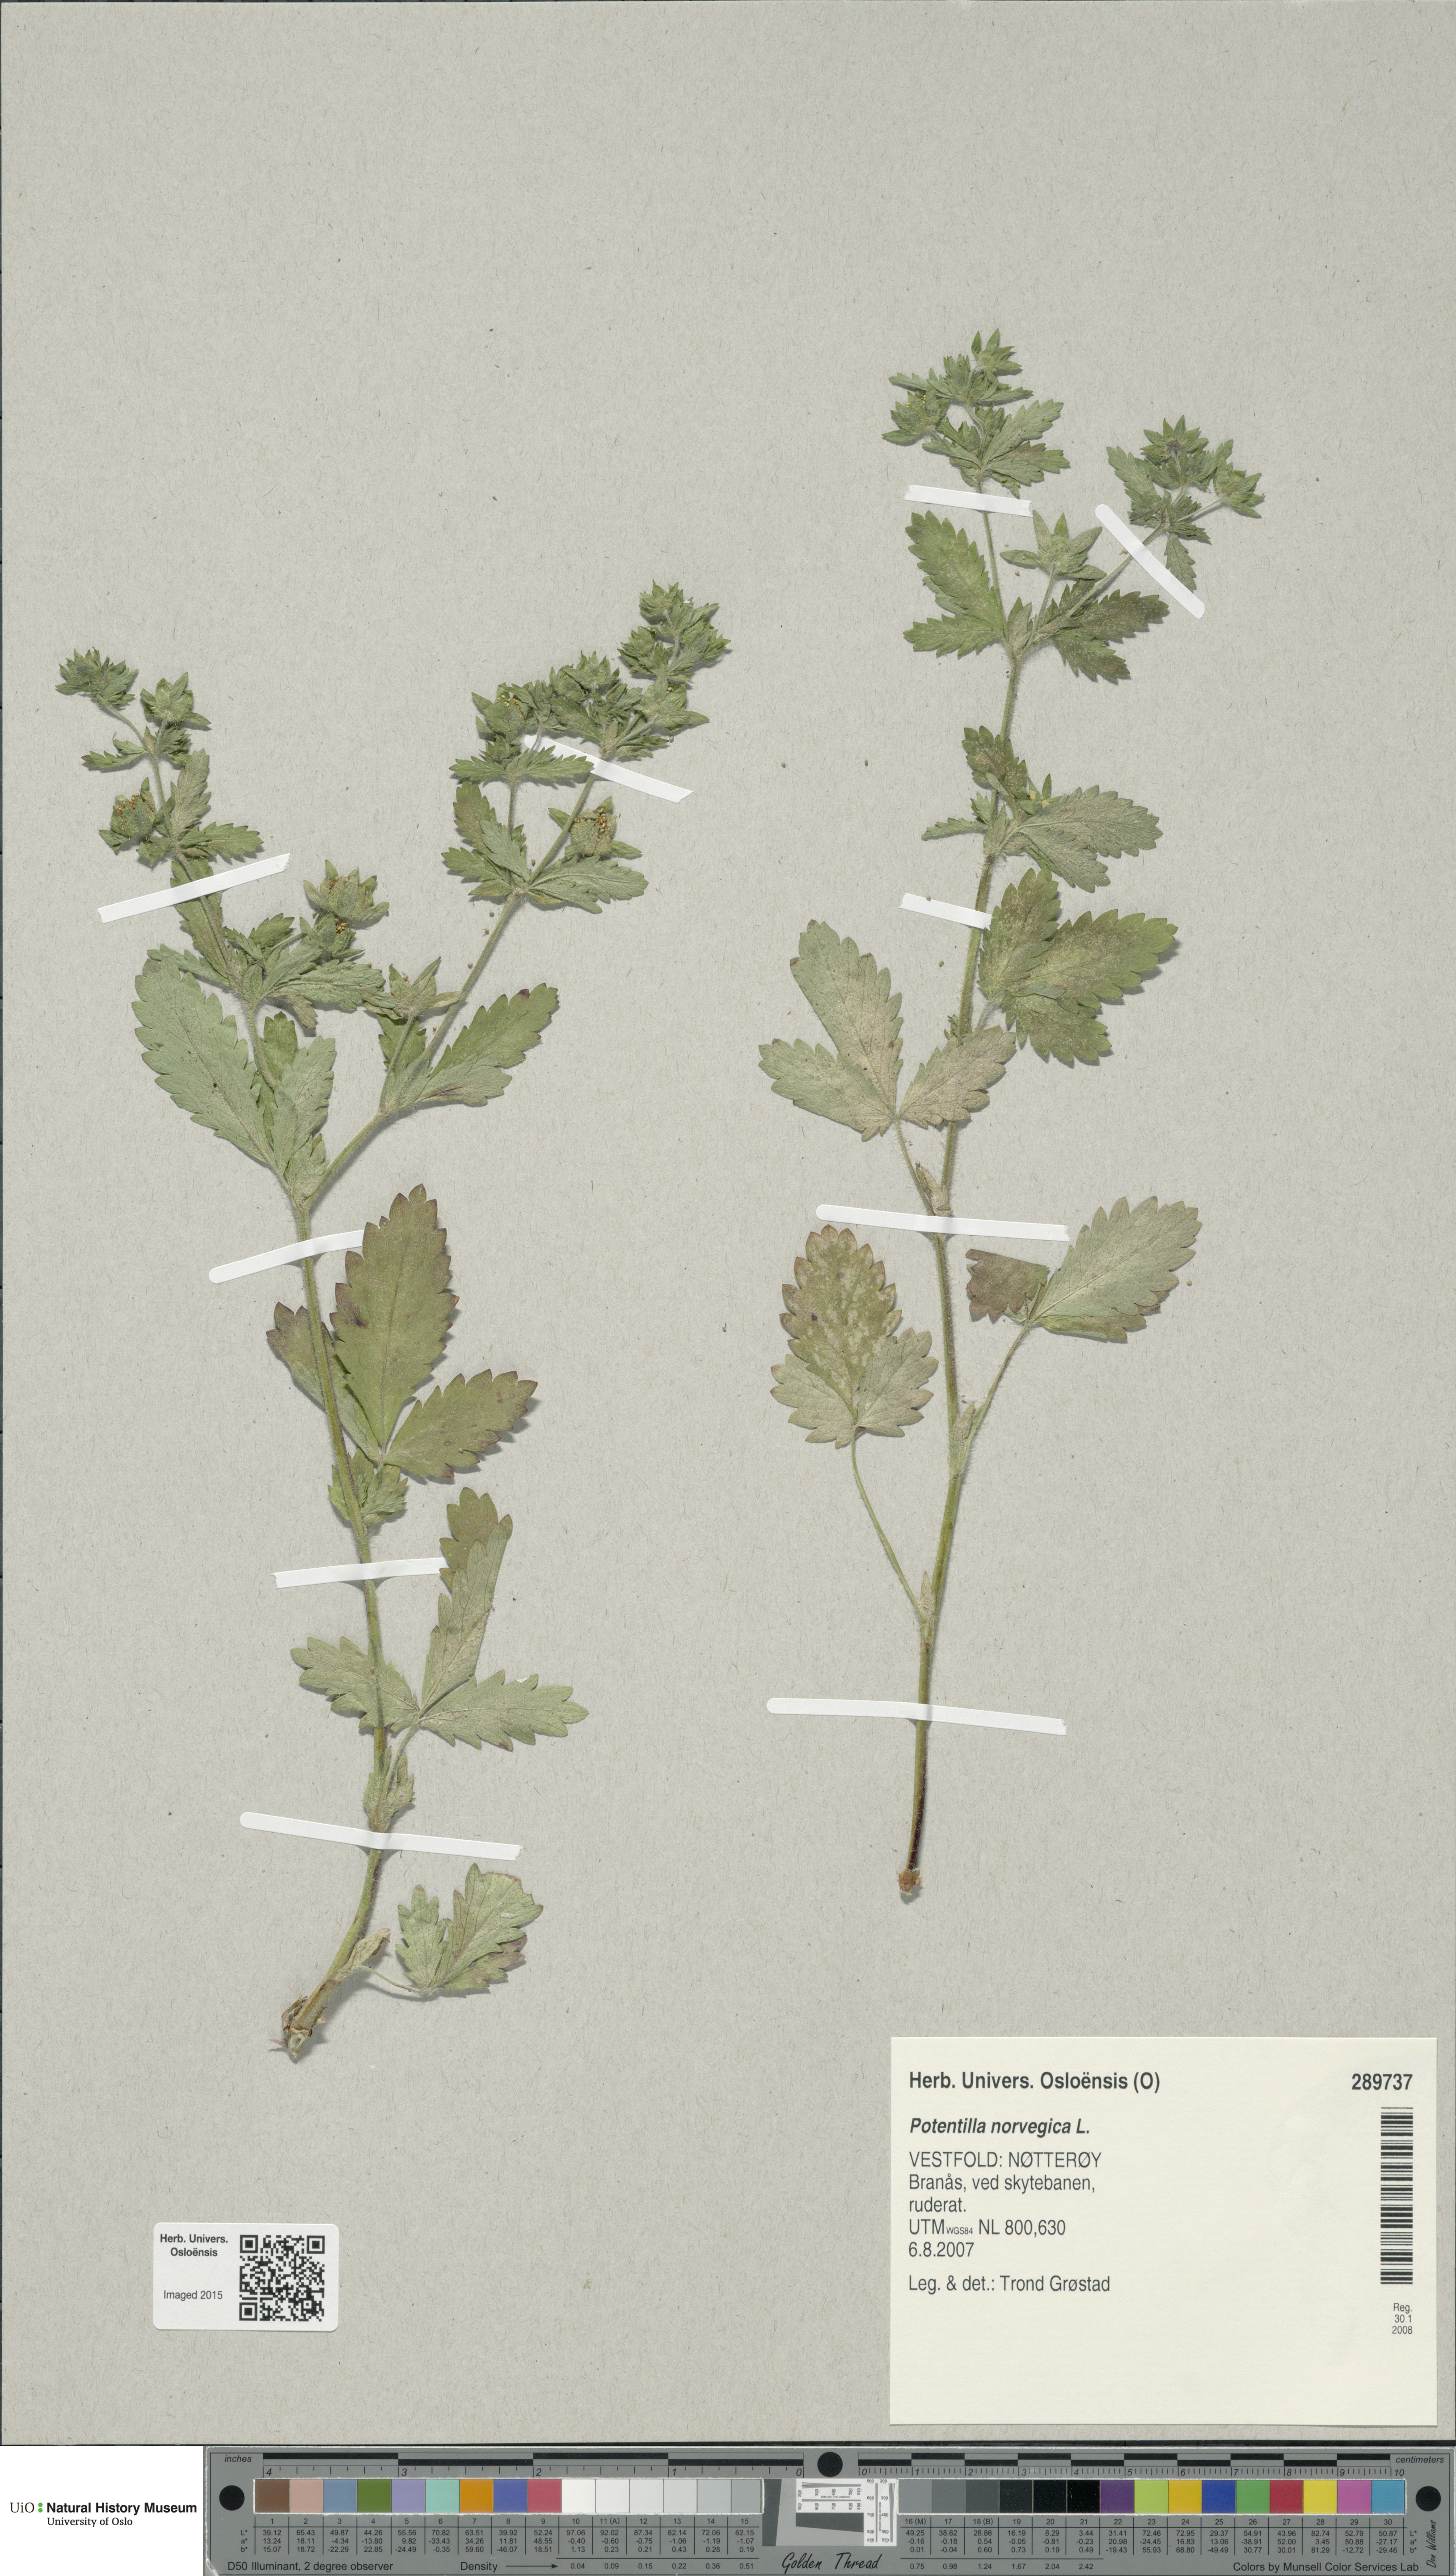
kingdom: Plantae
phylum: Tracheophyta
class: Magnoliopsida
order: Rosales
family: Rosaceae
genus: Potentilla
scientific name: Potentilla norvegica
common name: Ternate-leaved cinquefoil
